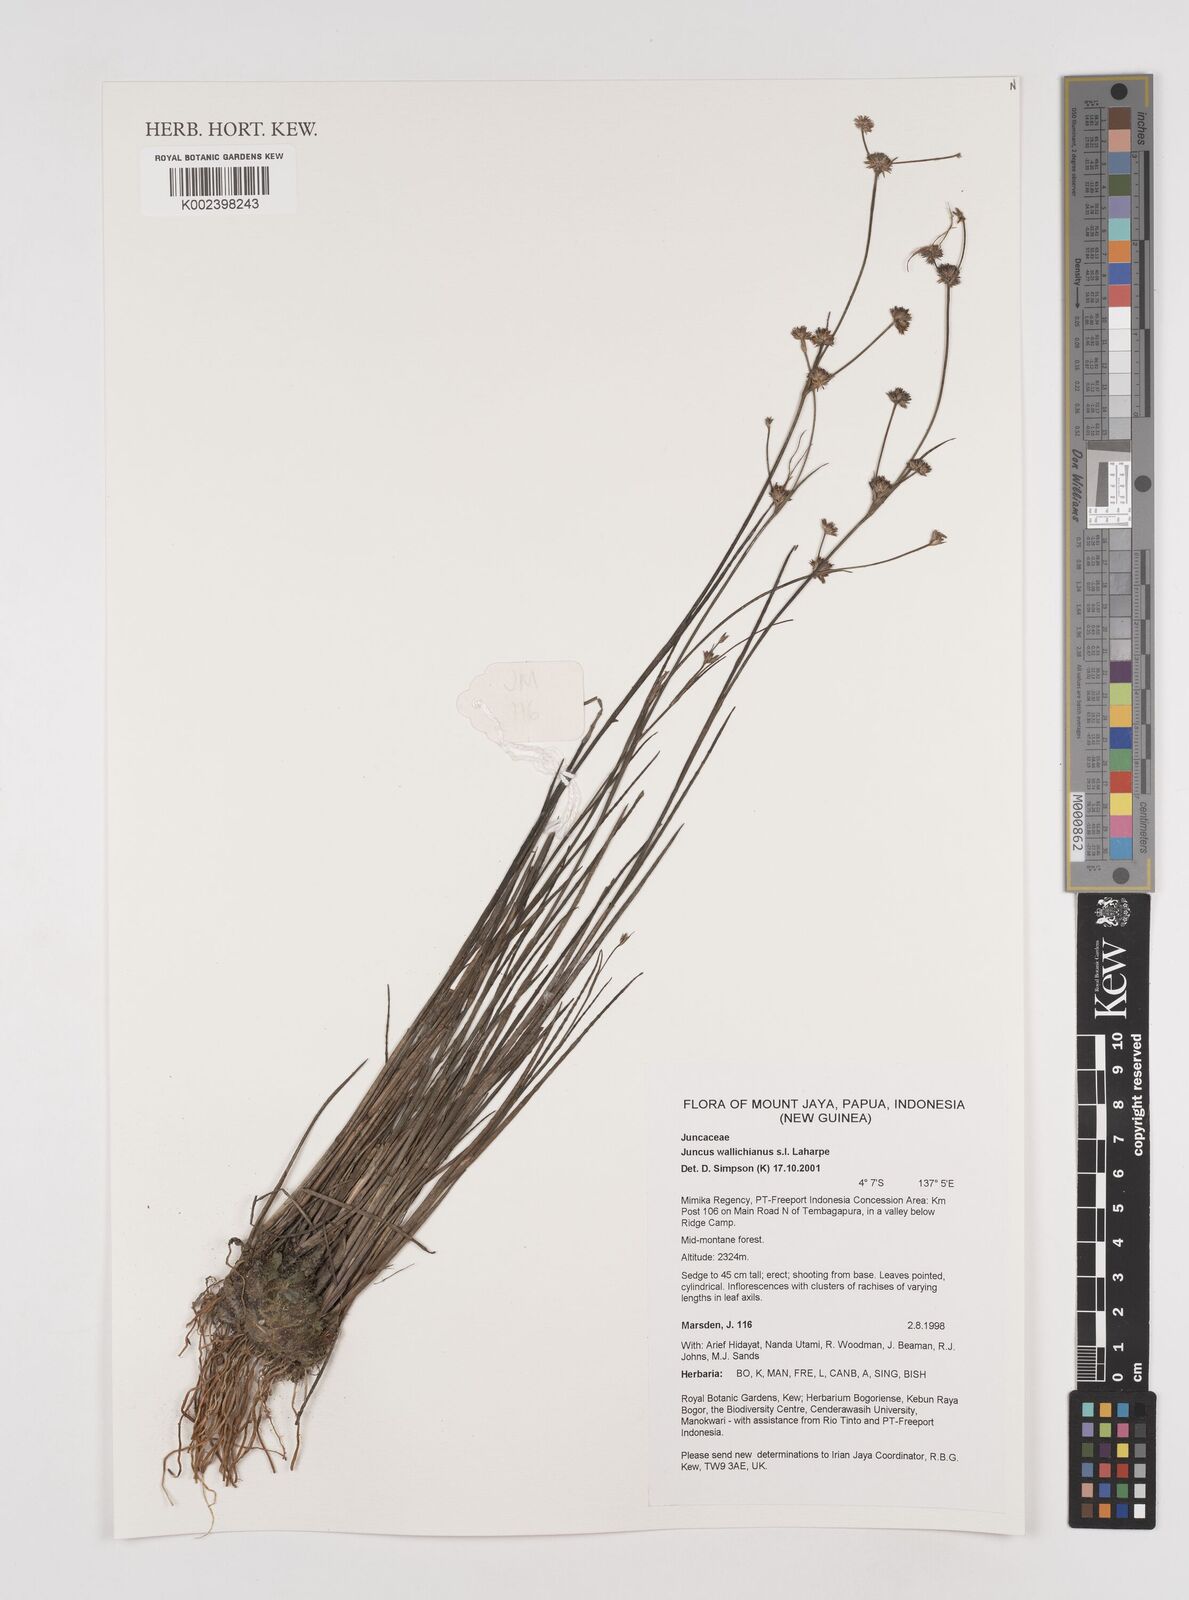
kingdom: Plantae
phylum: Tracheophyta
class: Liliopsida
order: Poales
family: Juncaceae
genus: Juncus
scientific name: Juncus wallichianus
